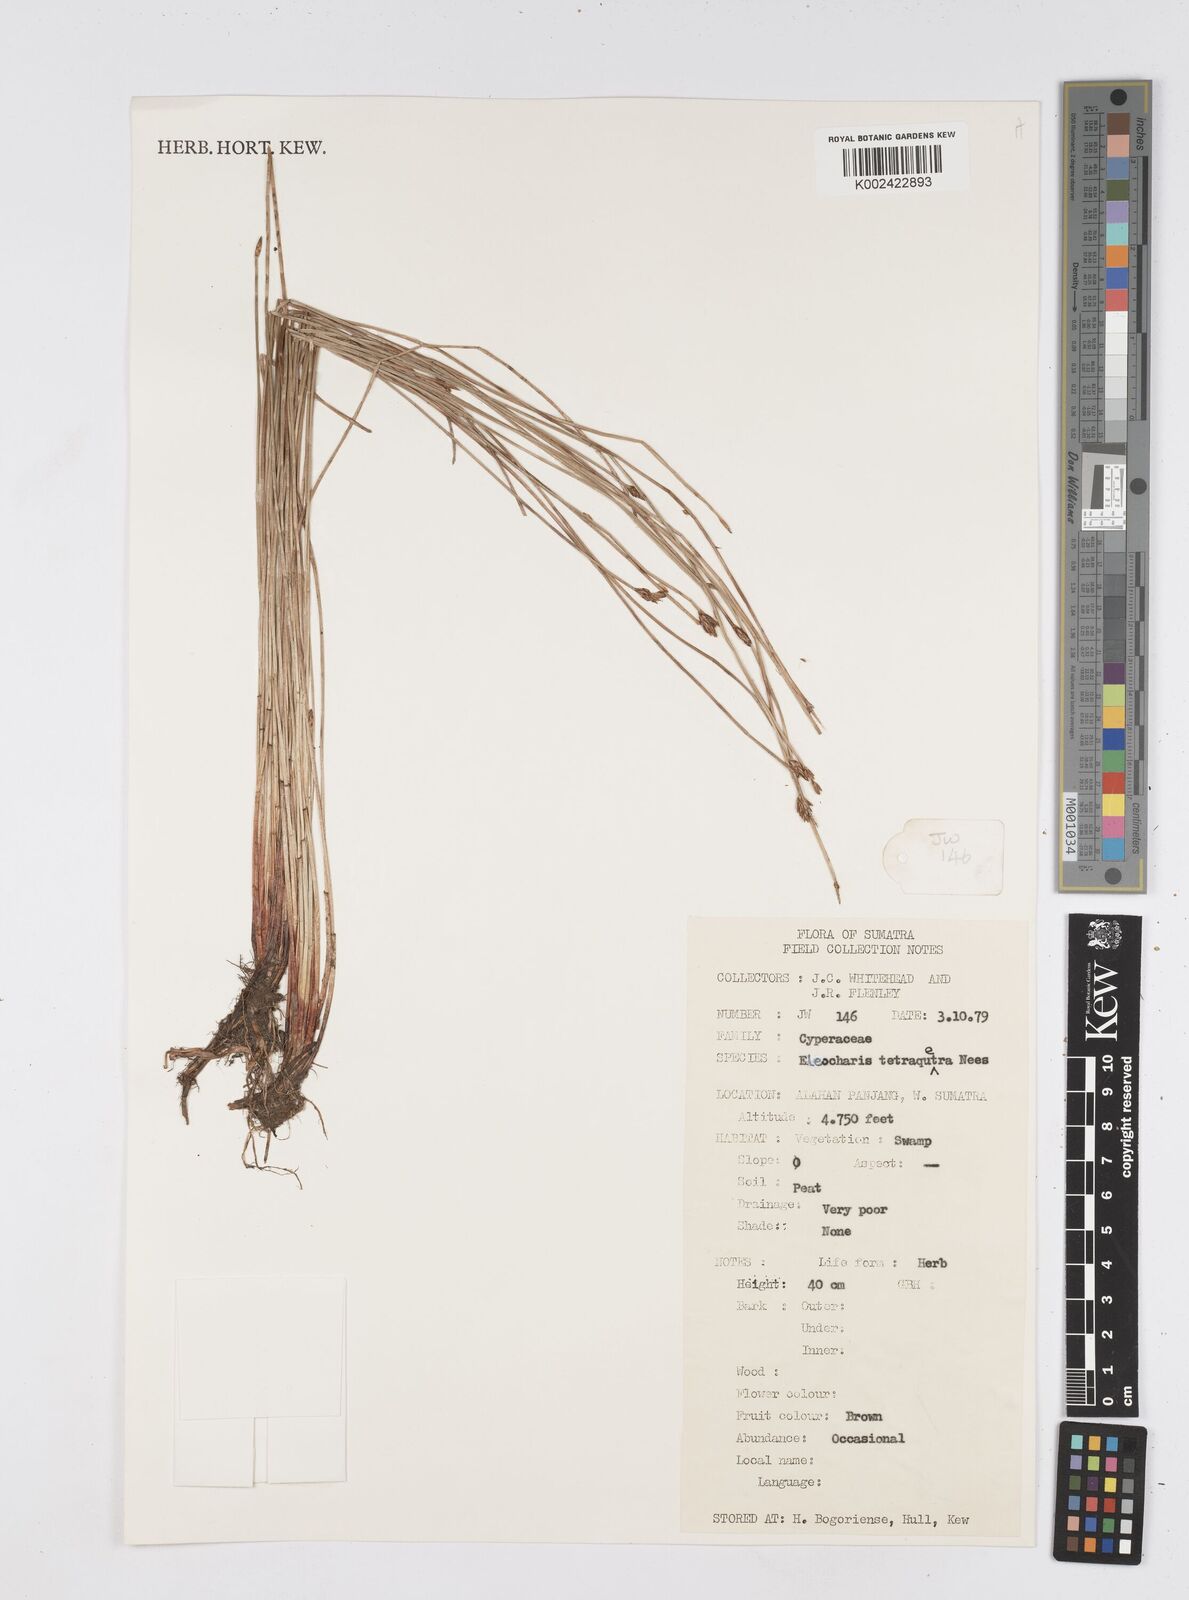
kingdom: Plantae
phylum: Tracheophyta
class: Liliopsida
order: Poales
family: Cyperaceae
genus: Eleocharis
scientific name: Eleocharis tetraquetra
